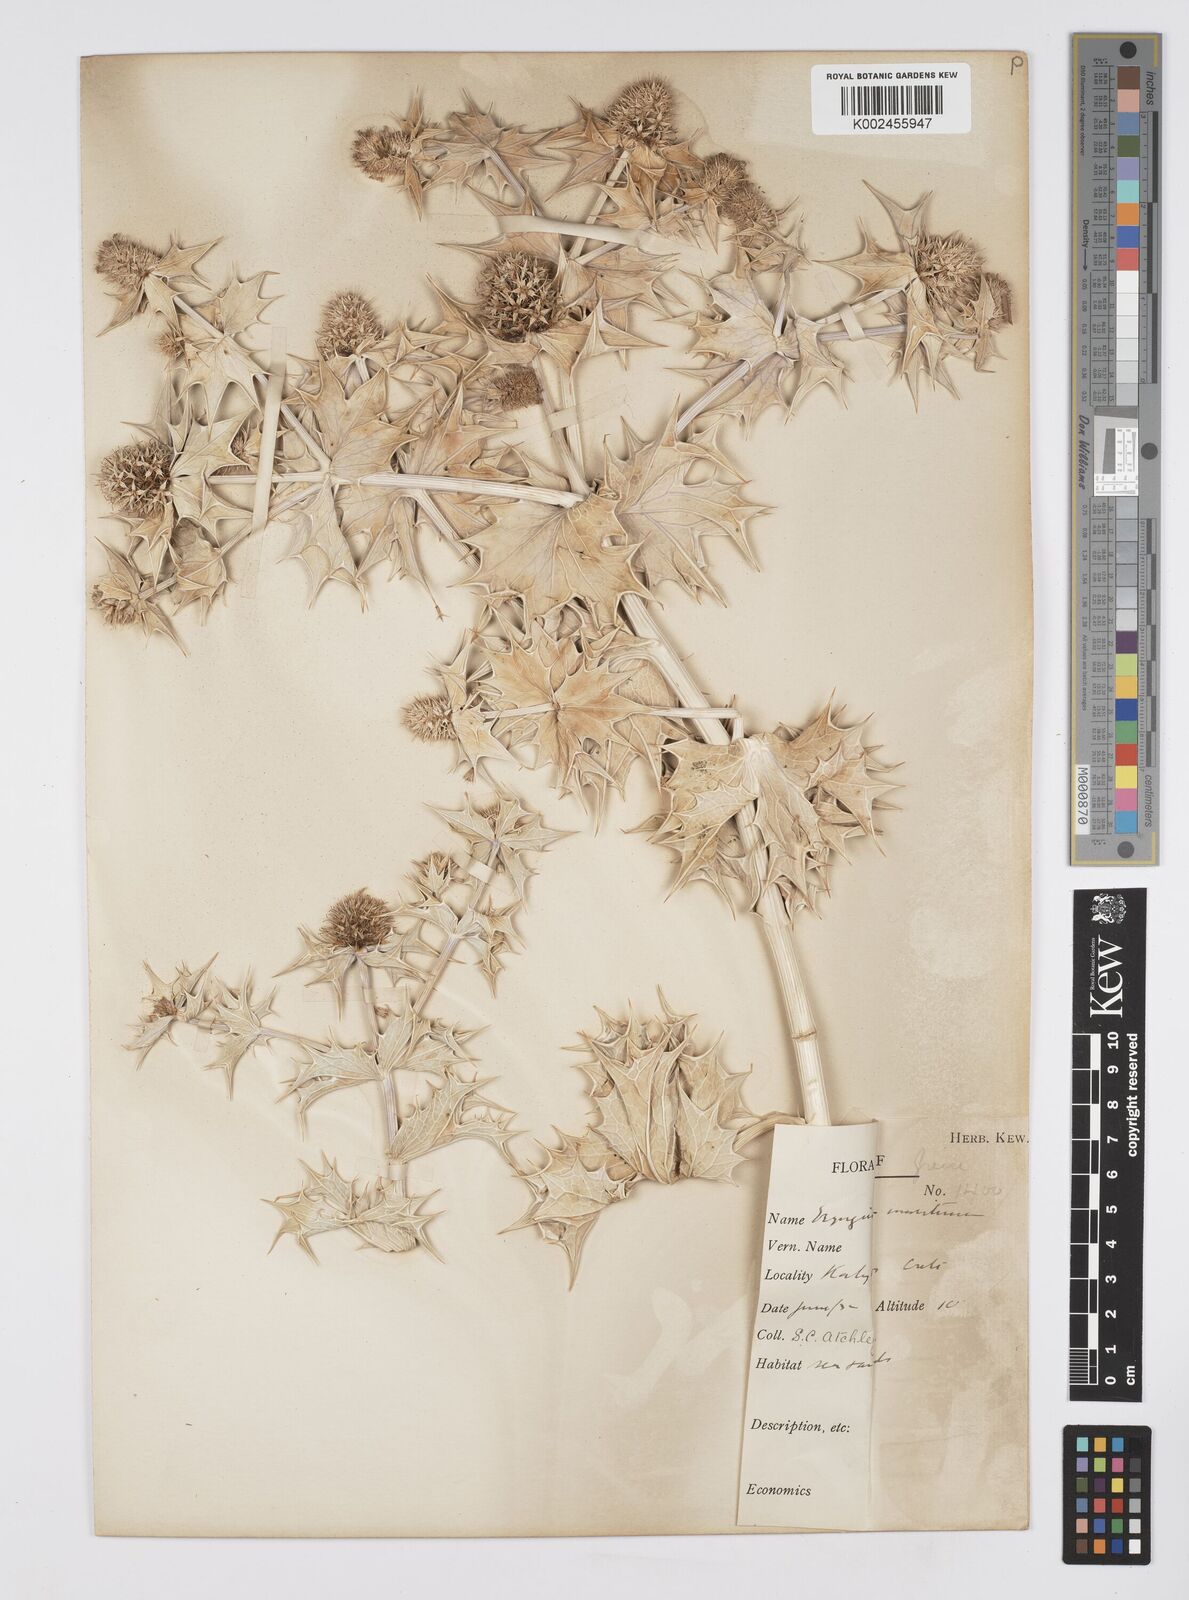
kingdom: Plantae
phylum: Tracheophyta
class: Magnoliopsida
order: Apiales
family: Apiaceae
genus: Eryngium
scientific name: Eryngium maritimum
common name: Sea-holly
